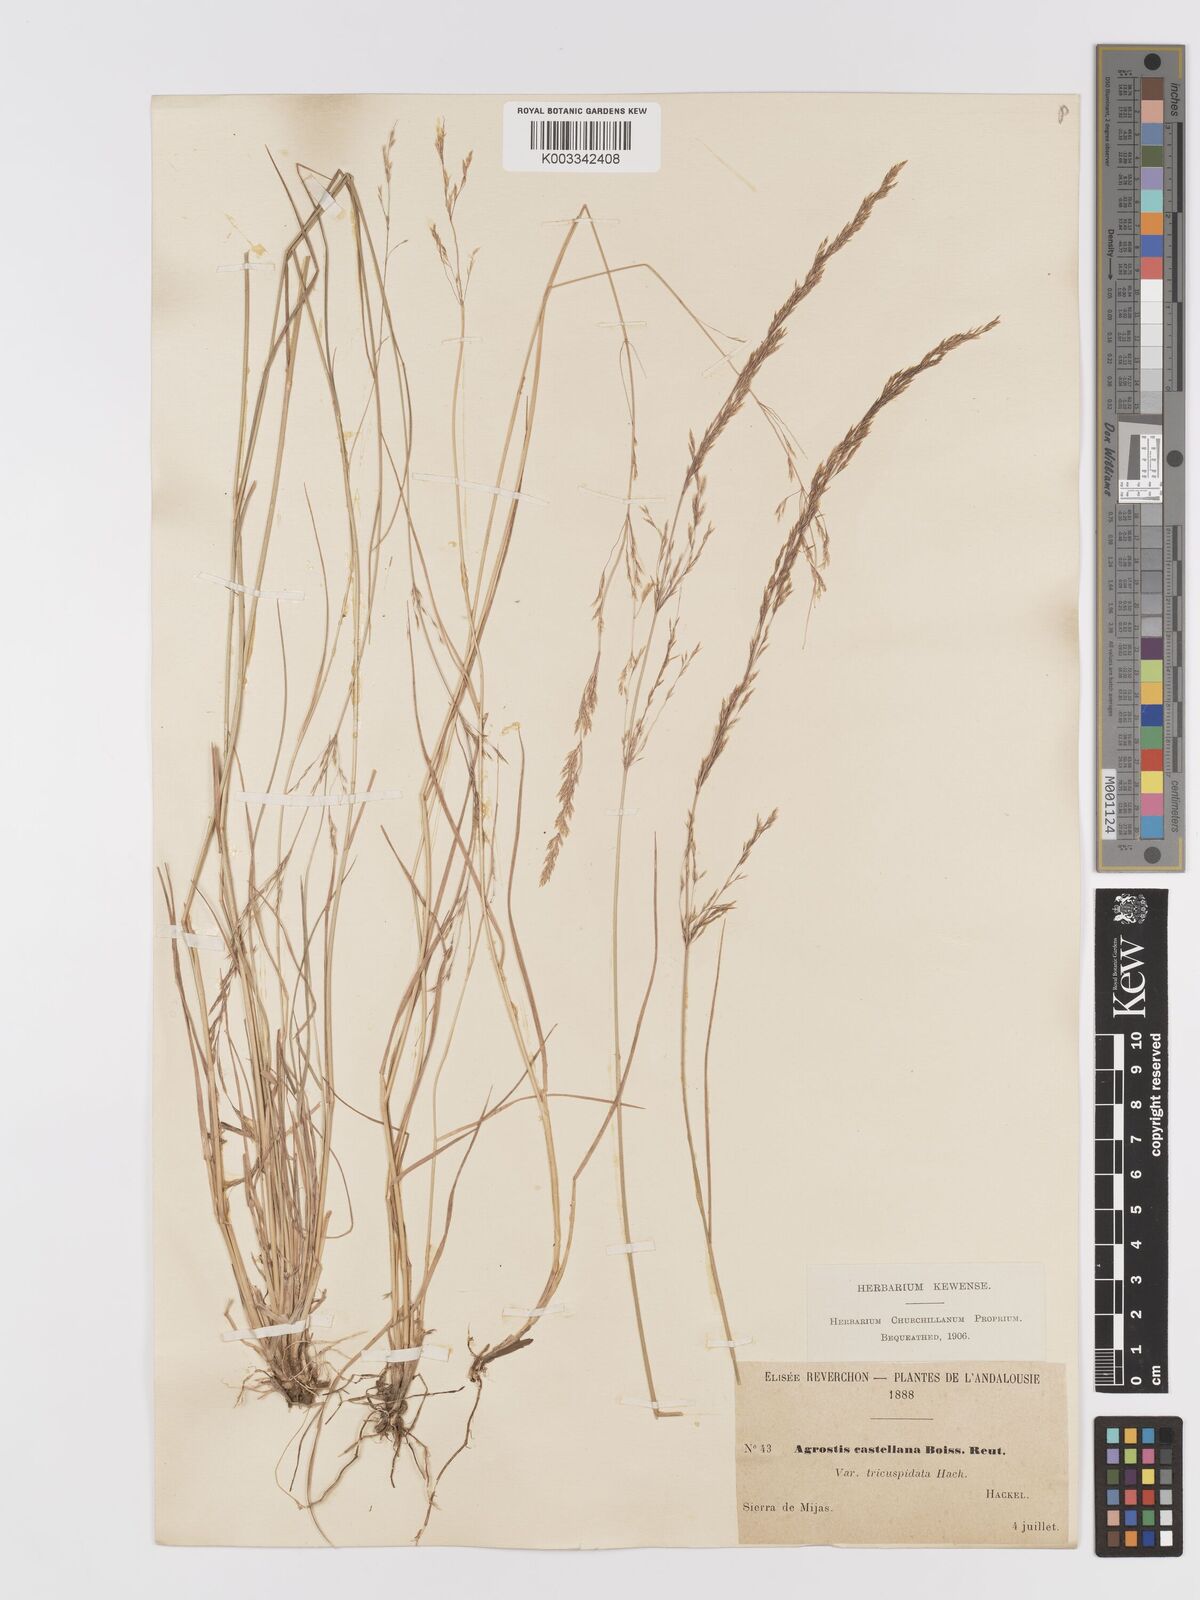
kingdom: Plantae
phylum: Tracheophyta
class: Liliopsida
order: Poales
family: Poaceae
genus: Agrostis
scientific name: Agrostis castellana
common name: Highland bent
